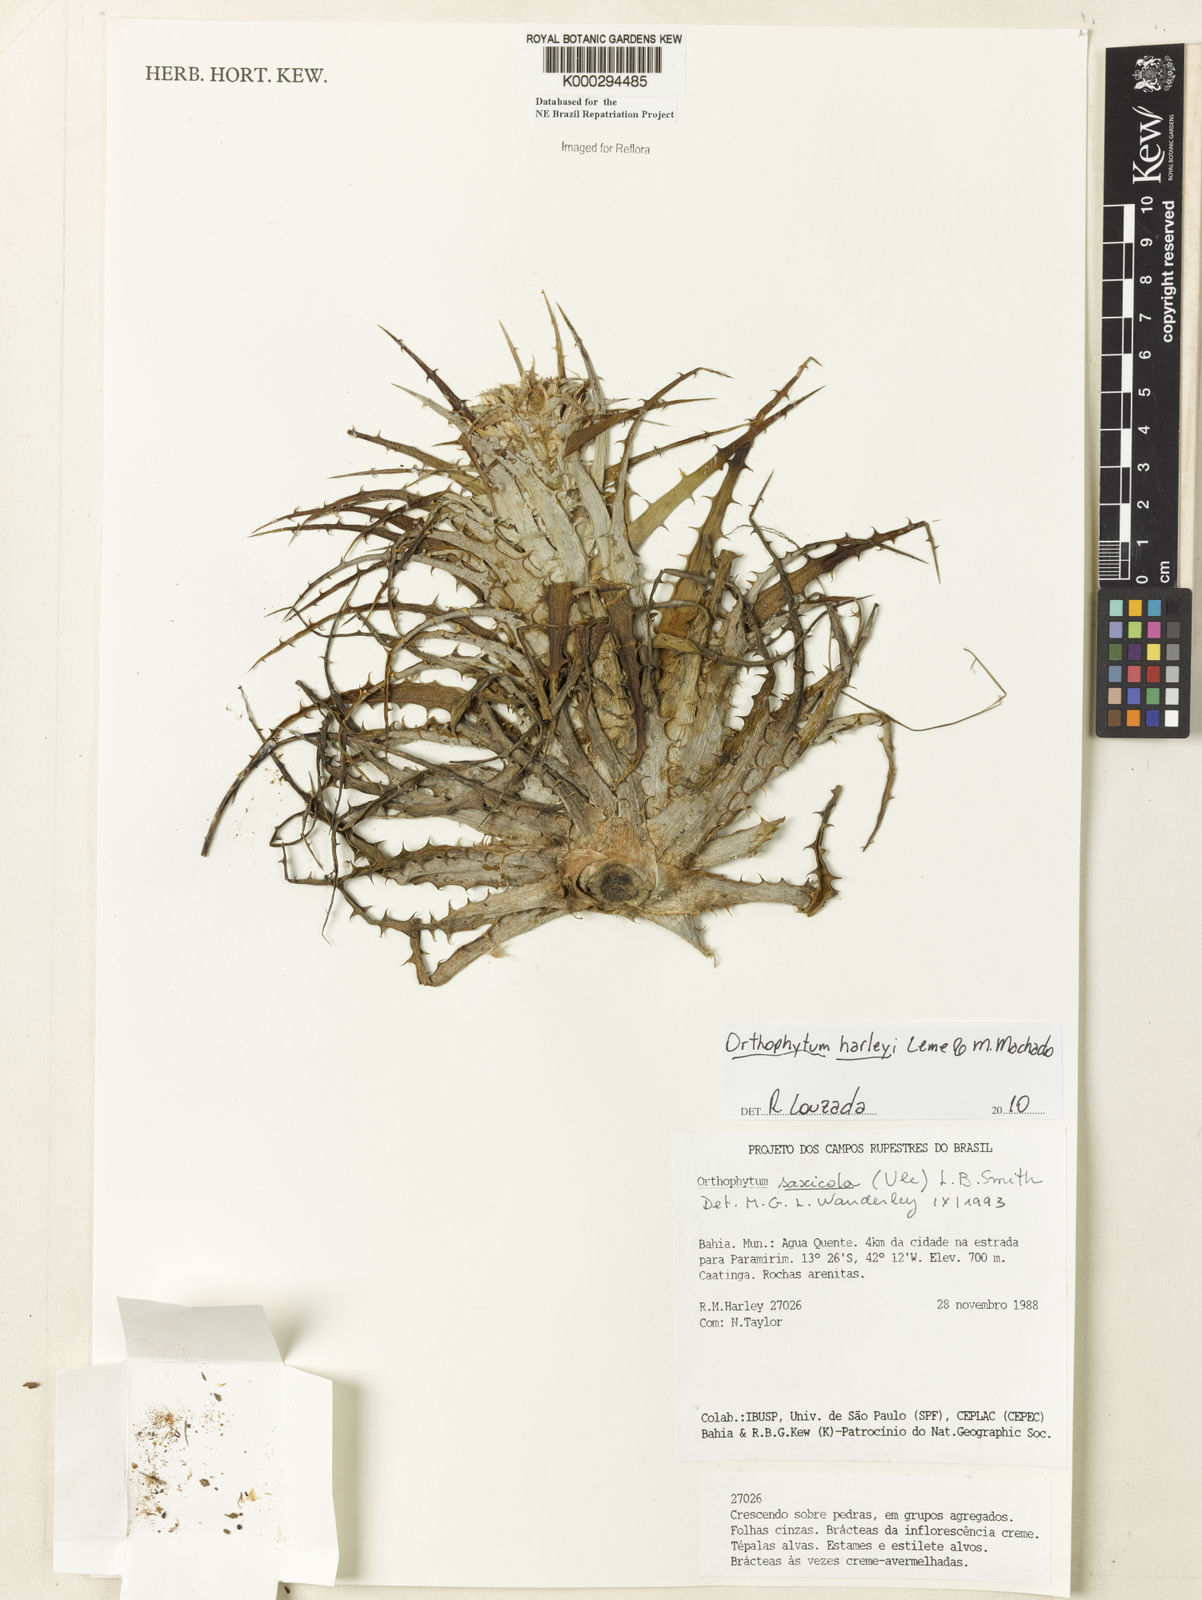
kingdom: Plantae
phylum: Tracheophyta
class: Liliopsida
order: Poales
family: Bromeliaceae
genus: Orthophytum
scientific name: Orthophytum saxicola
